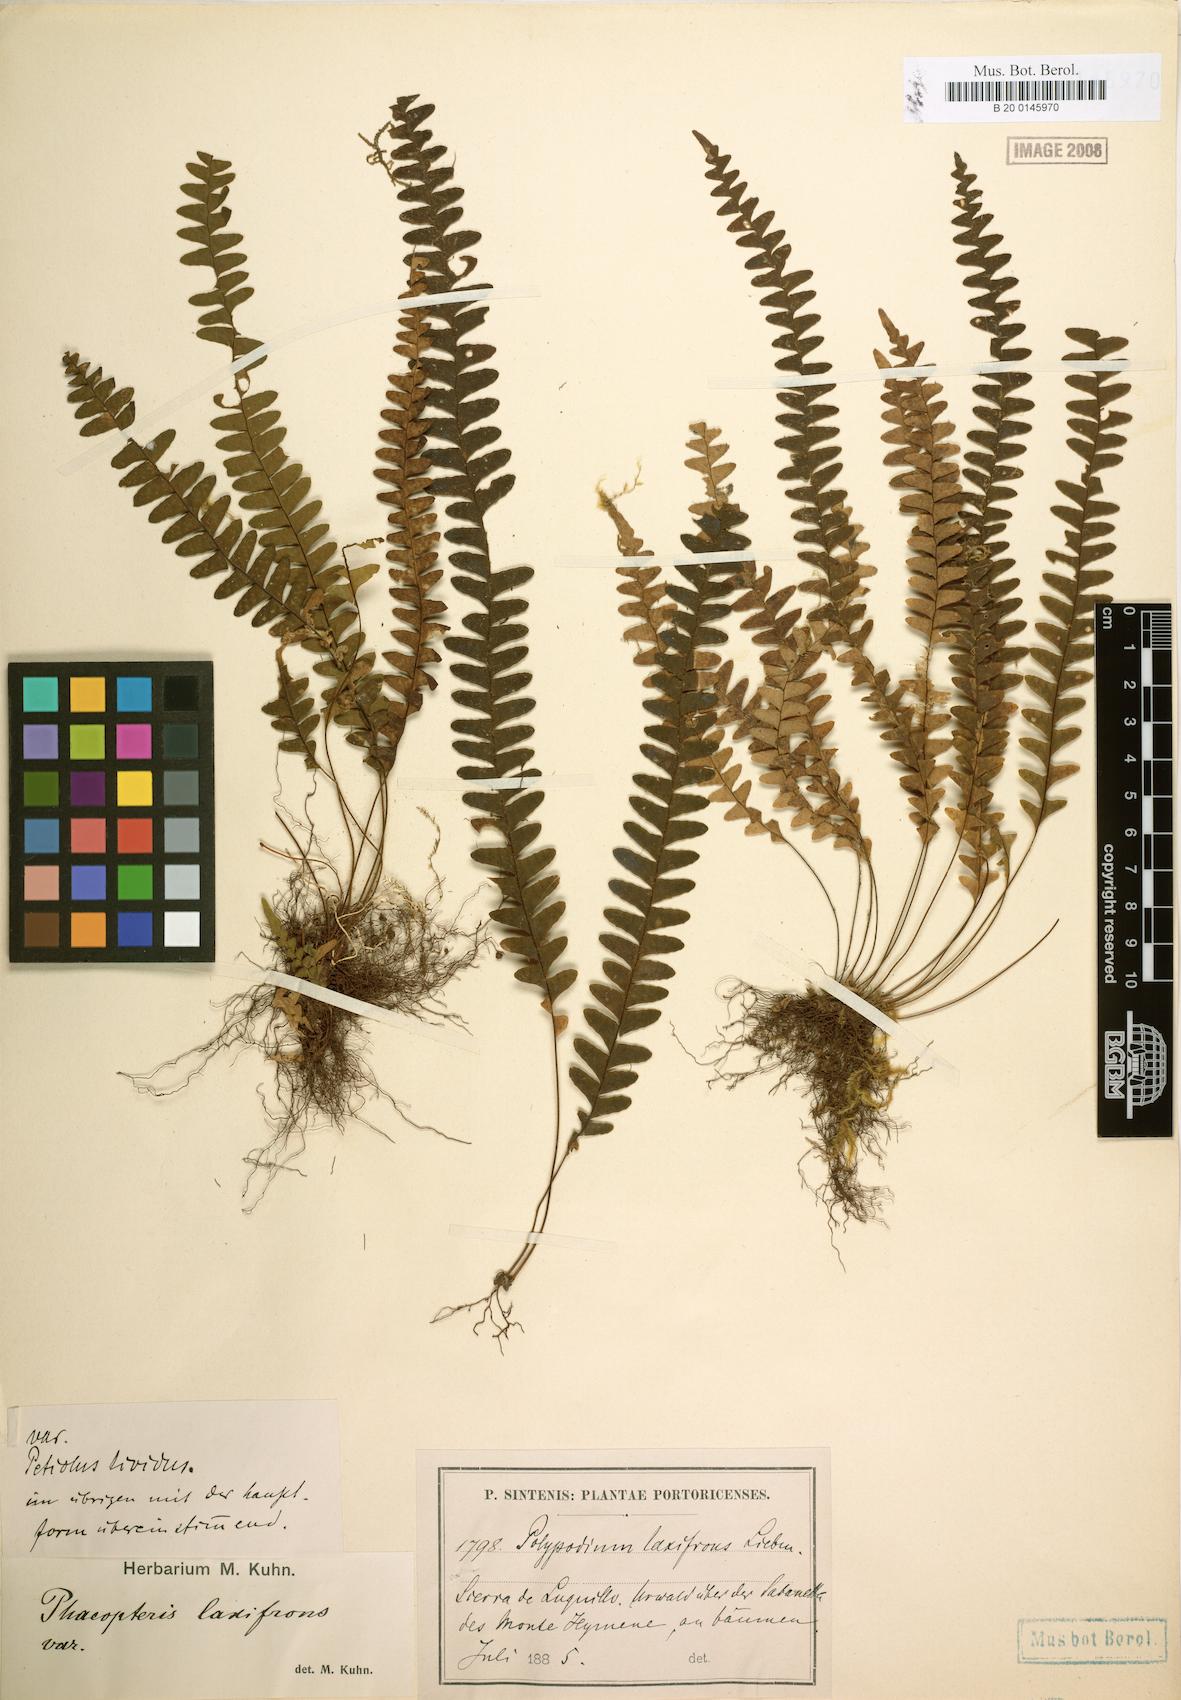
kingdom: Plantae
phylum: Tracheophyta
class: Polypodiopsida
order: Polypodiales
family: Polypodiaceae
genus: Terpsichore
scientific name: Terpsichore asplenifolia
